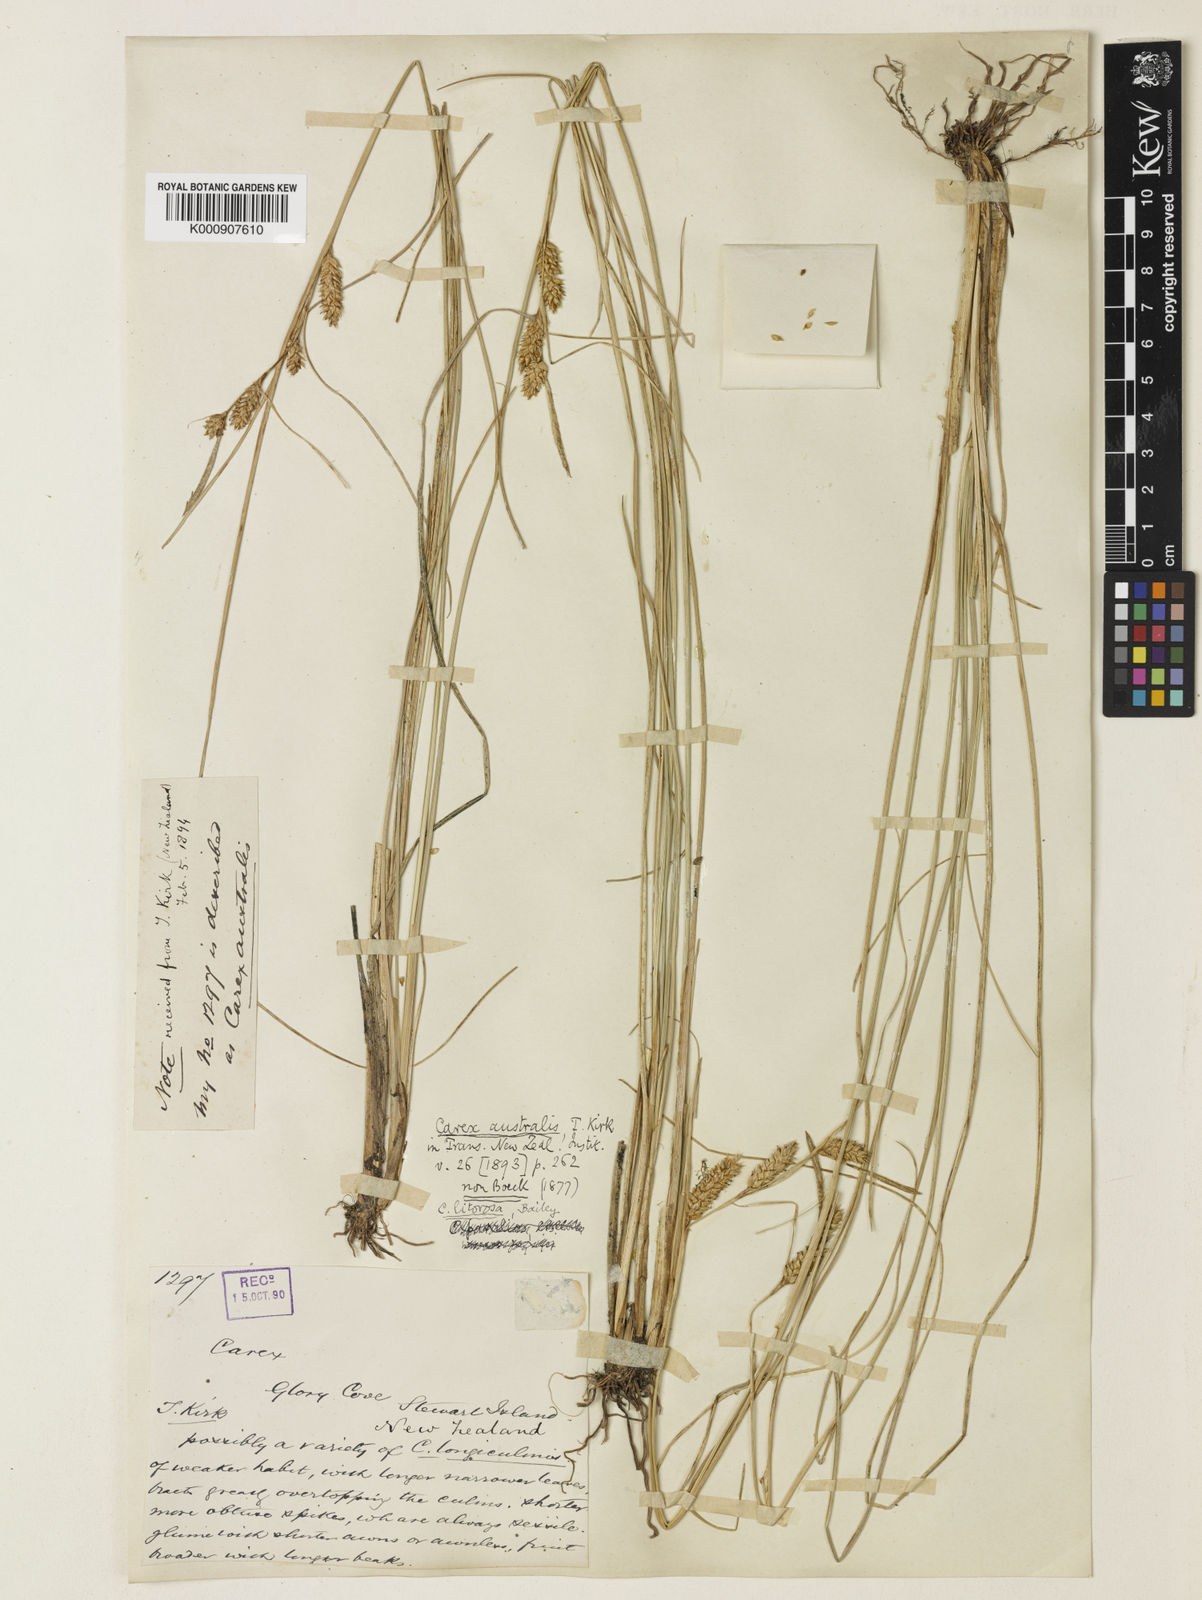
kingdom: Plantae
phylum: Tracheophyta
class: Liliopsida
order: Poales
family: Cyperaceae
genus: Carex
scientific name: Carex litorosa
